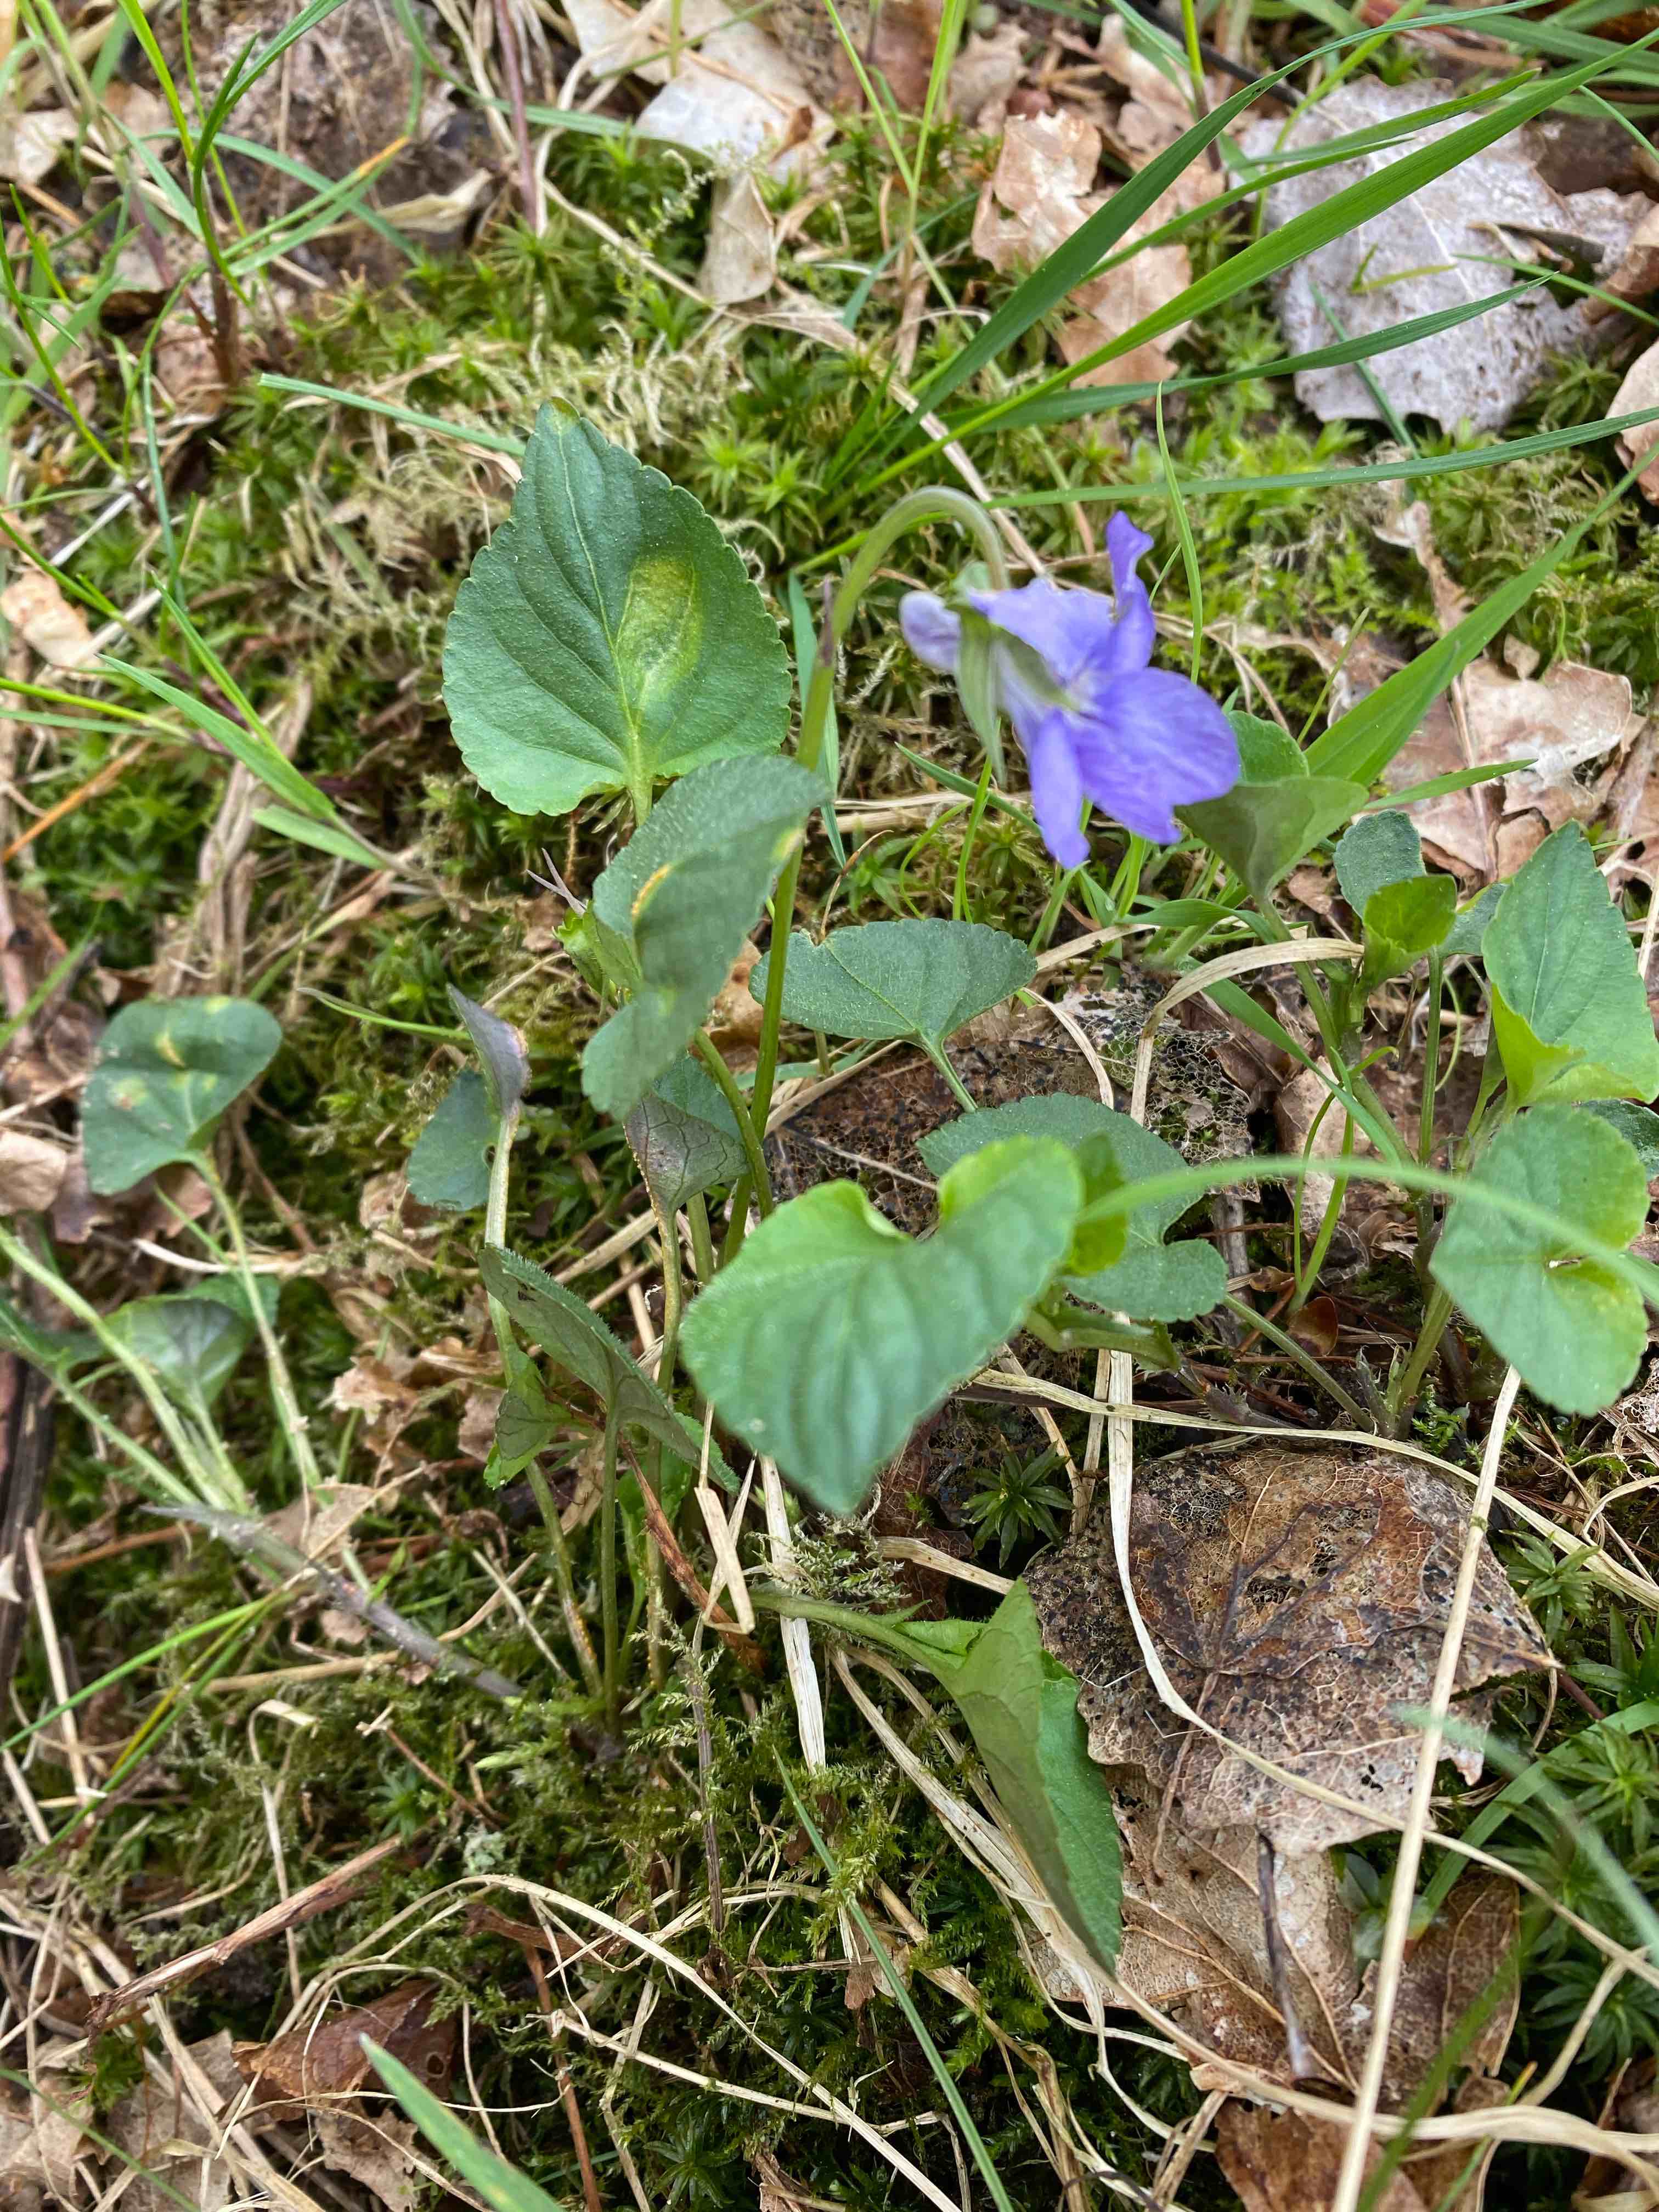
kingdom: Fungi
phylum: Basidiomycota
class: Pucciniomycetes
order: Pucciniales
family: Pucciniaceae
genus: Puccinia
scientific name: Puccinia violae
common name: viol-tvecellerust
